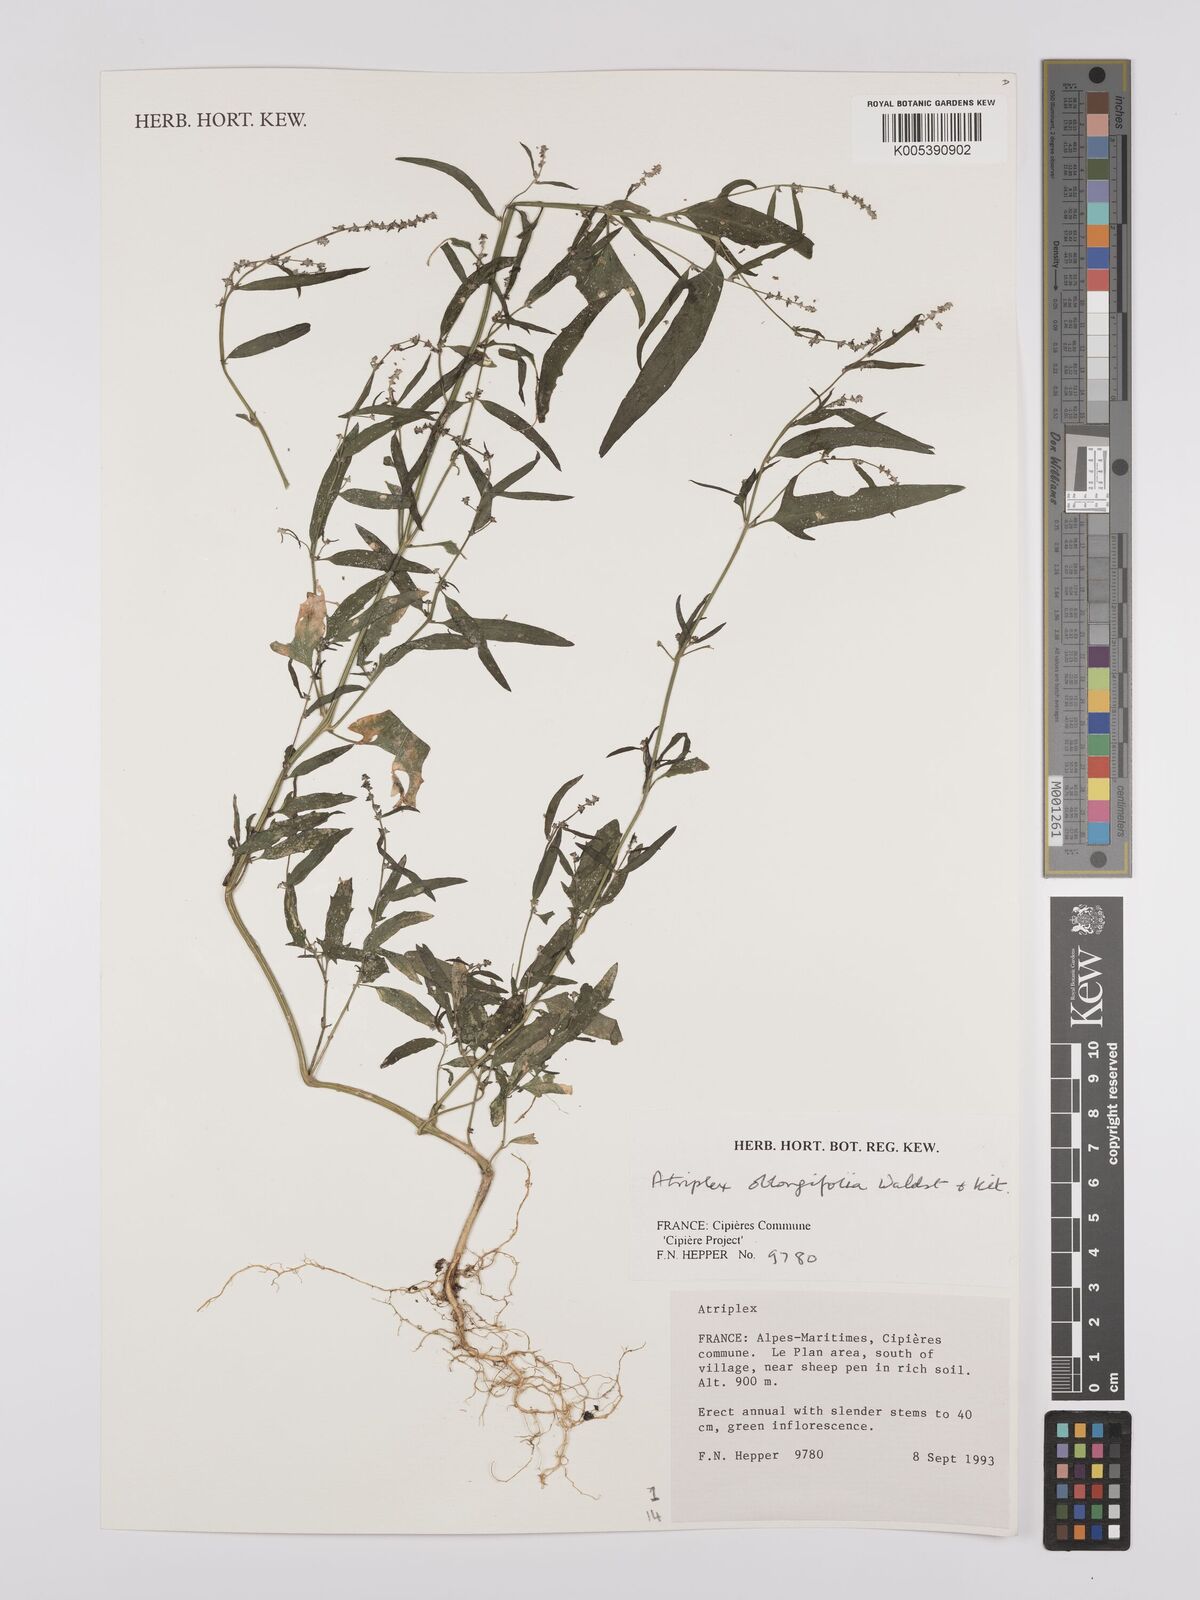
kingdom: Plantae
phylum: Tracheophyta
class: Magnoliopsida
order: Caryophyllales
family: Amaranthaceae
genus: Atriplex
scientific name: Atriplex
